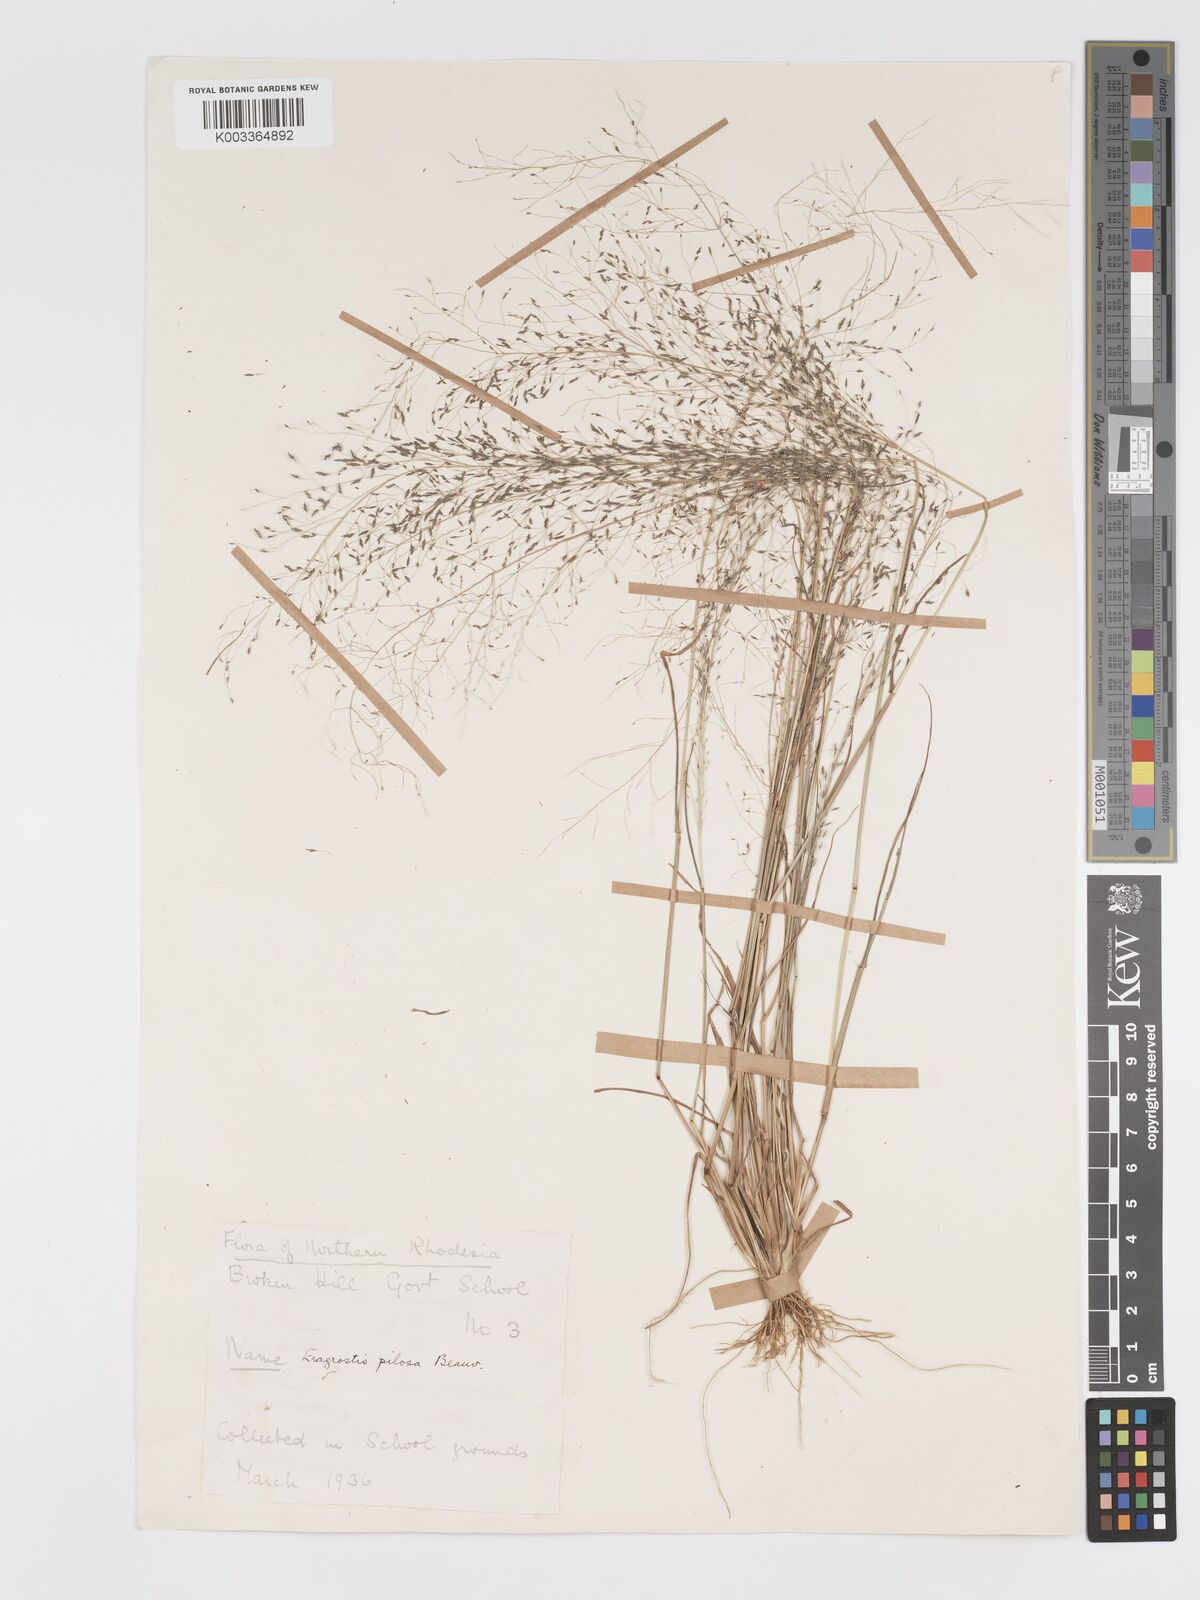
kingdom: Plantae
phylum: Tracheophyta
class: Liliopsida
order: Poales
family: Poaceae
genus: Eragrostis
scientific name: Eragrostis pilosa
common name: Indian lovegrass
